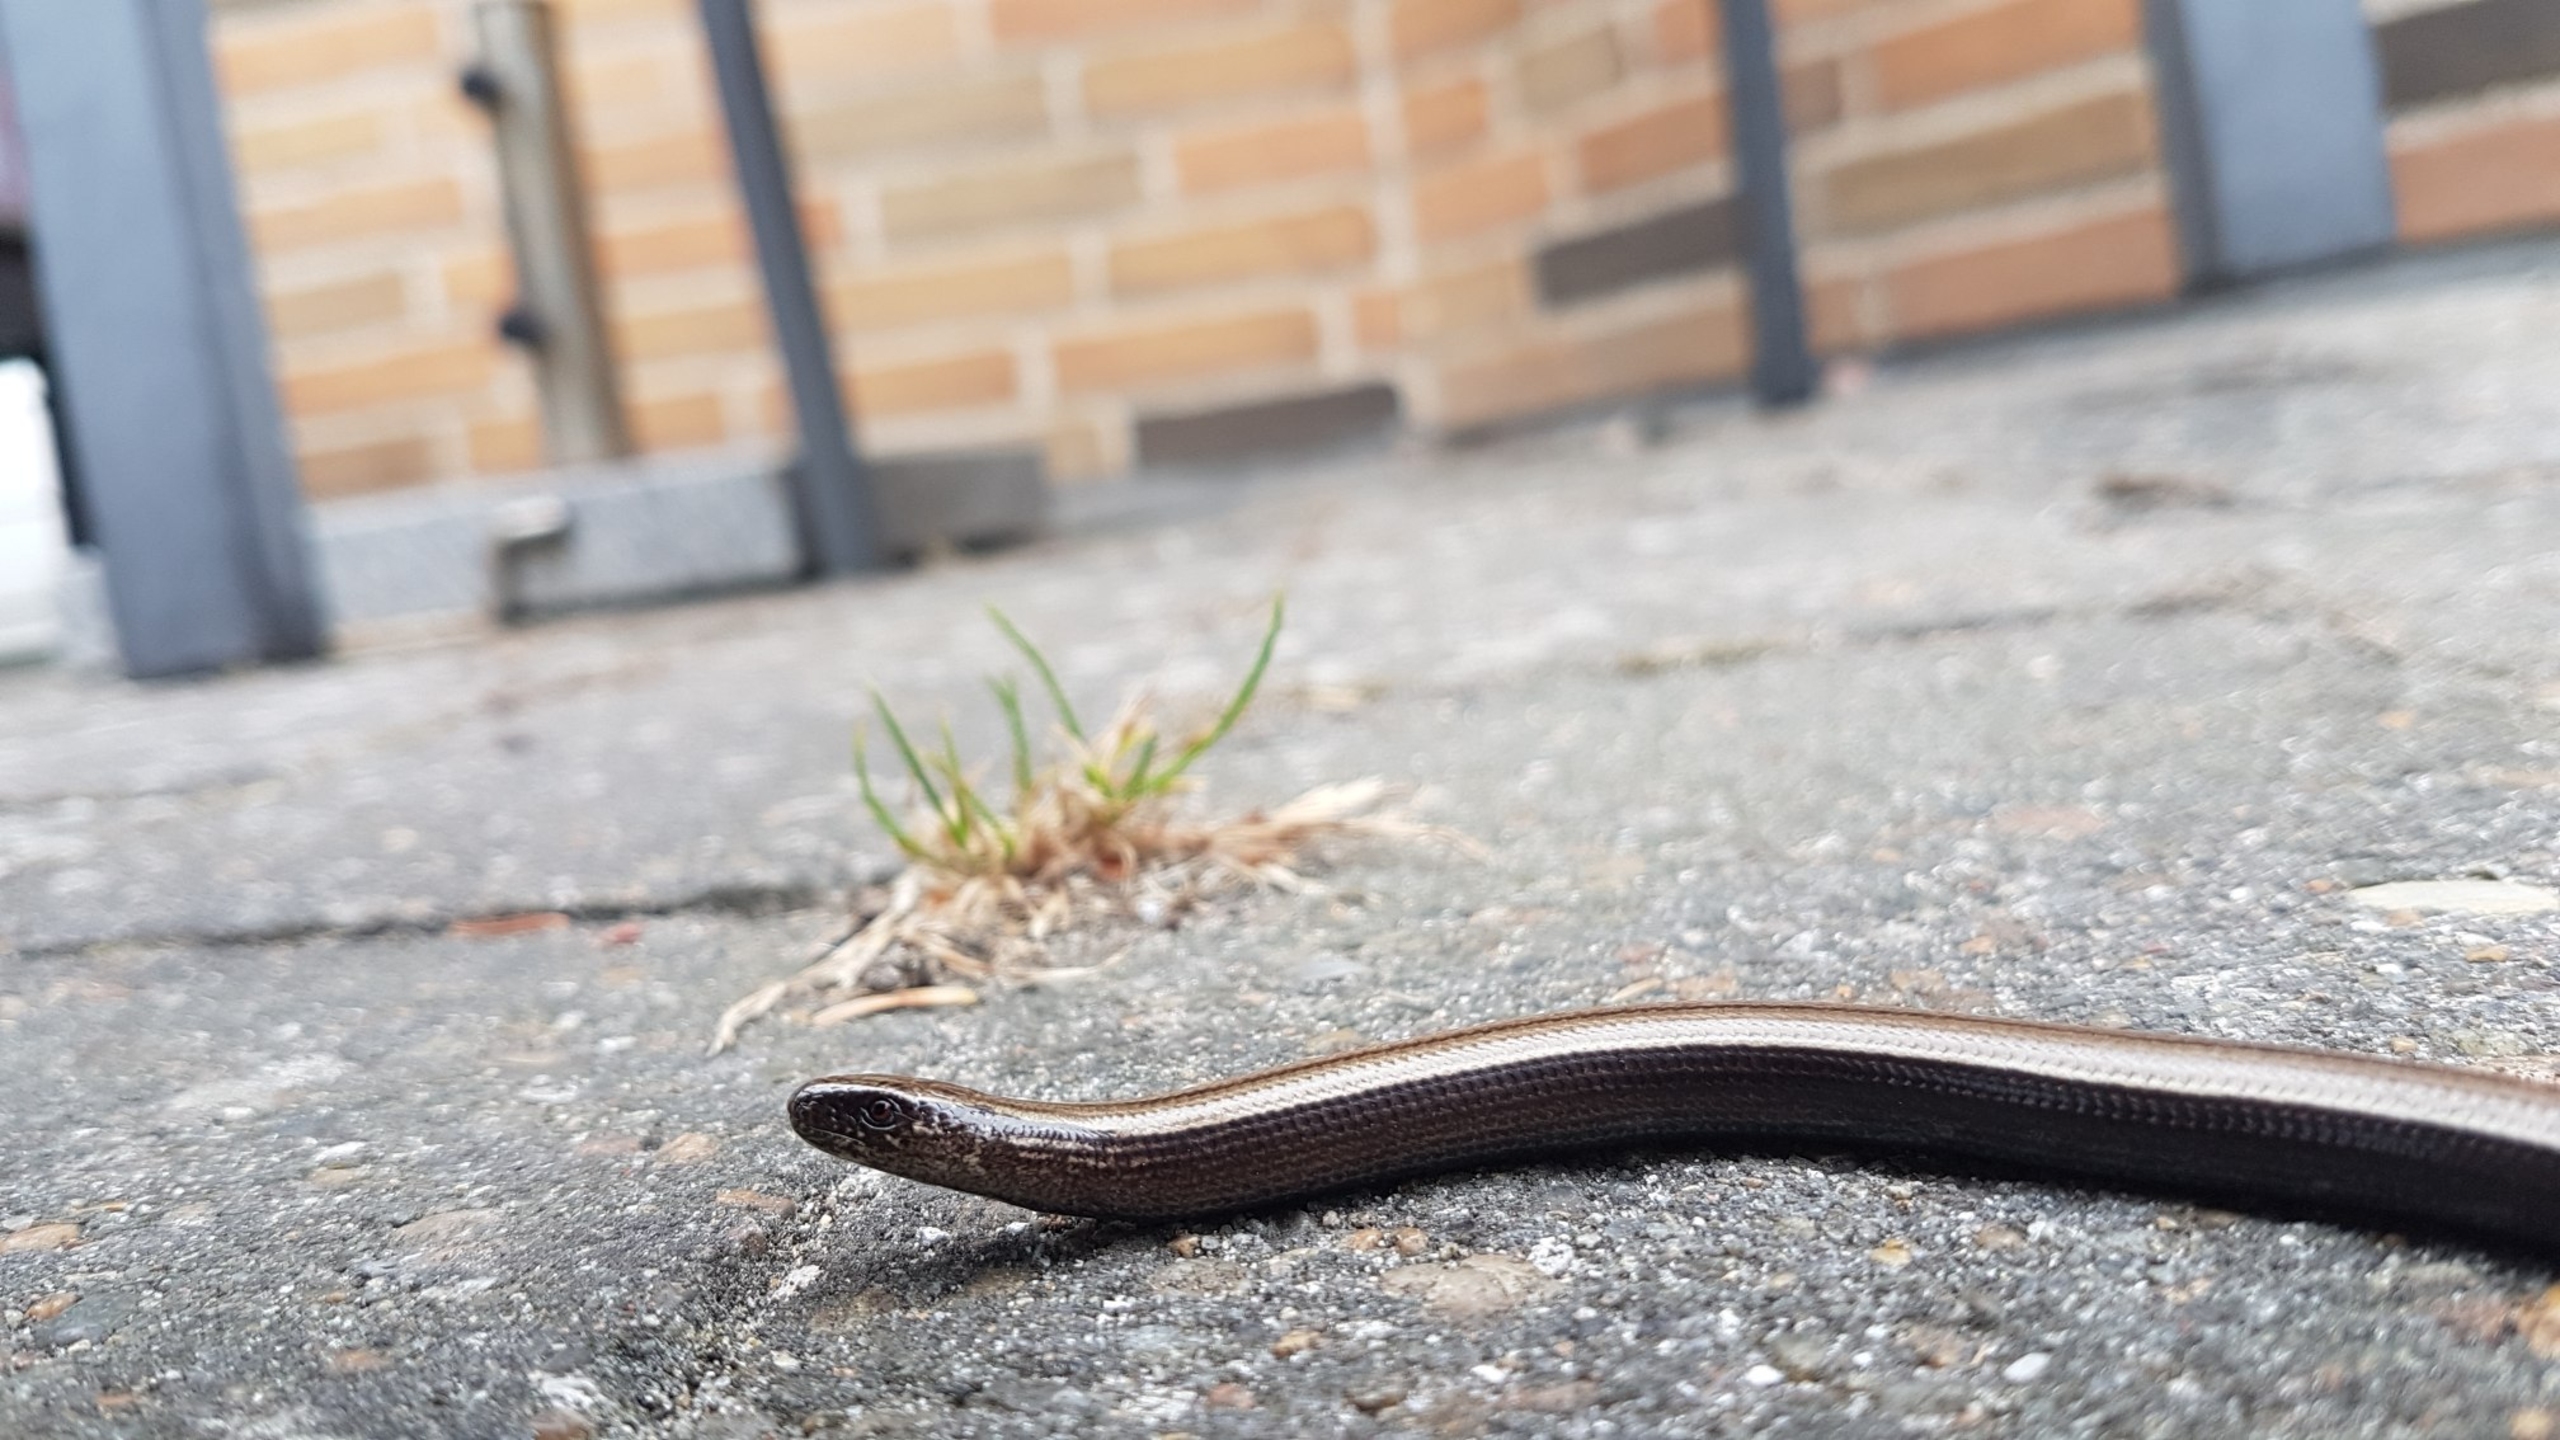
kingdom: Animalia
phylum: Chordata
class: Squamata
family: Anguidae
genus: Anguis
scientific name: Anguis fragilis
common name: Stålorm
